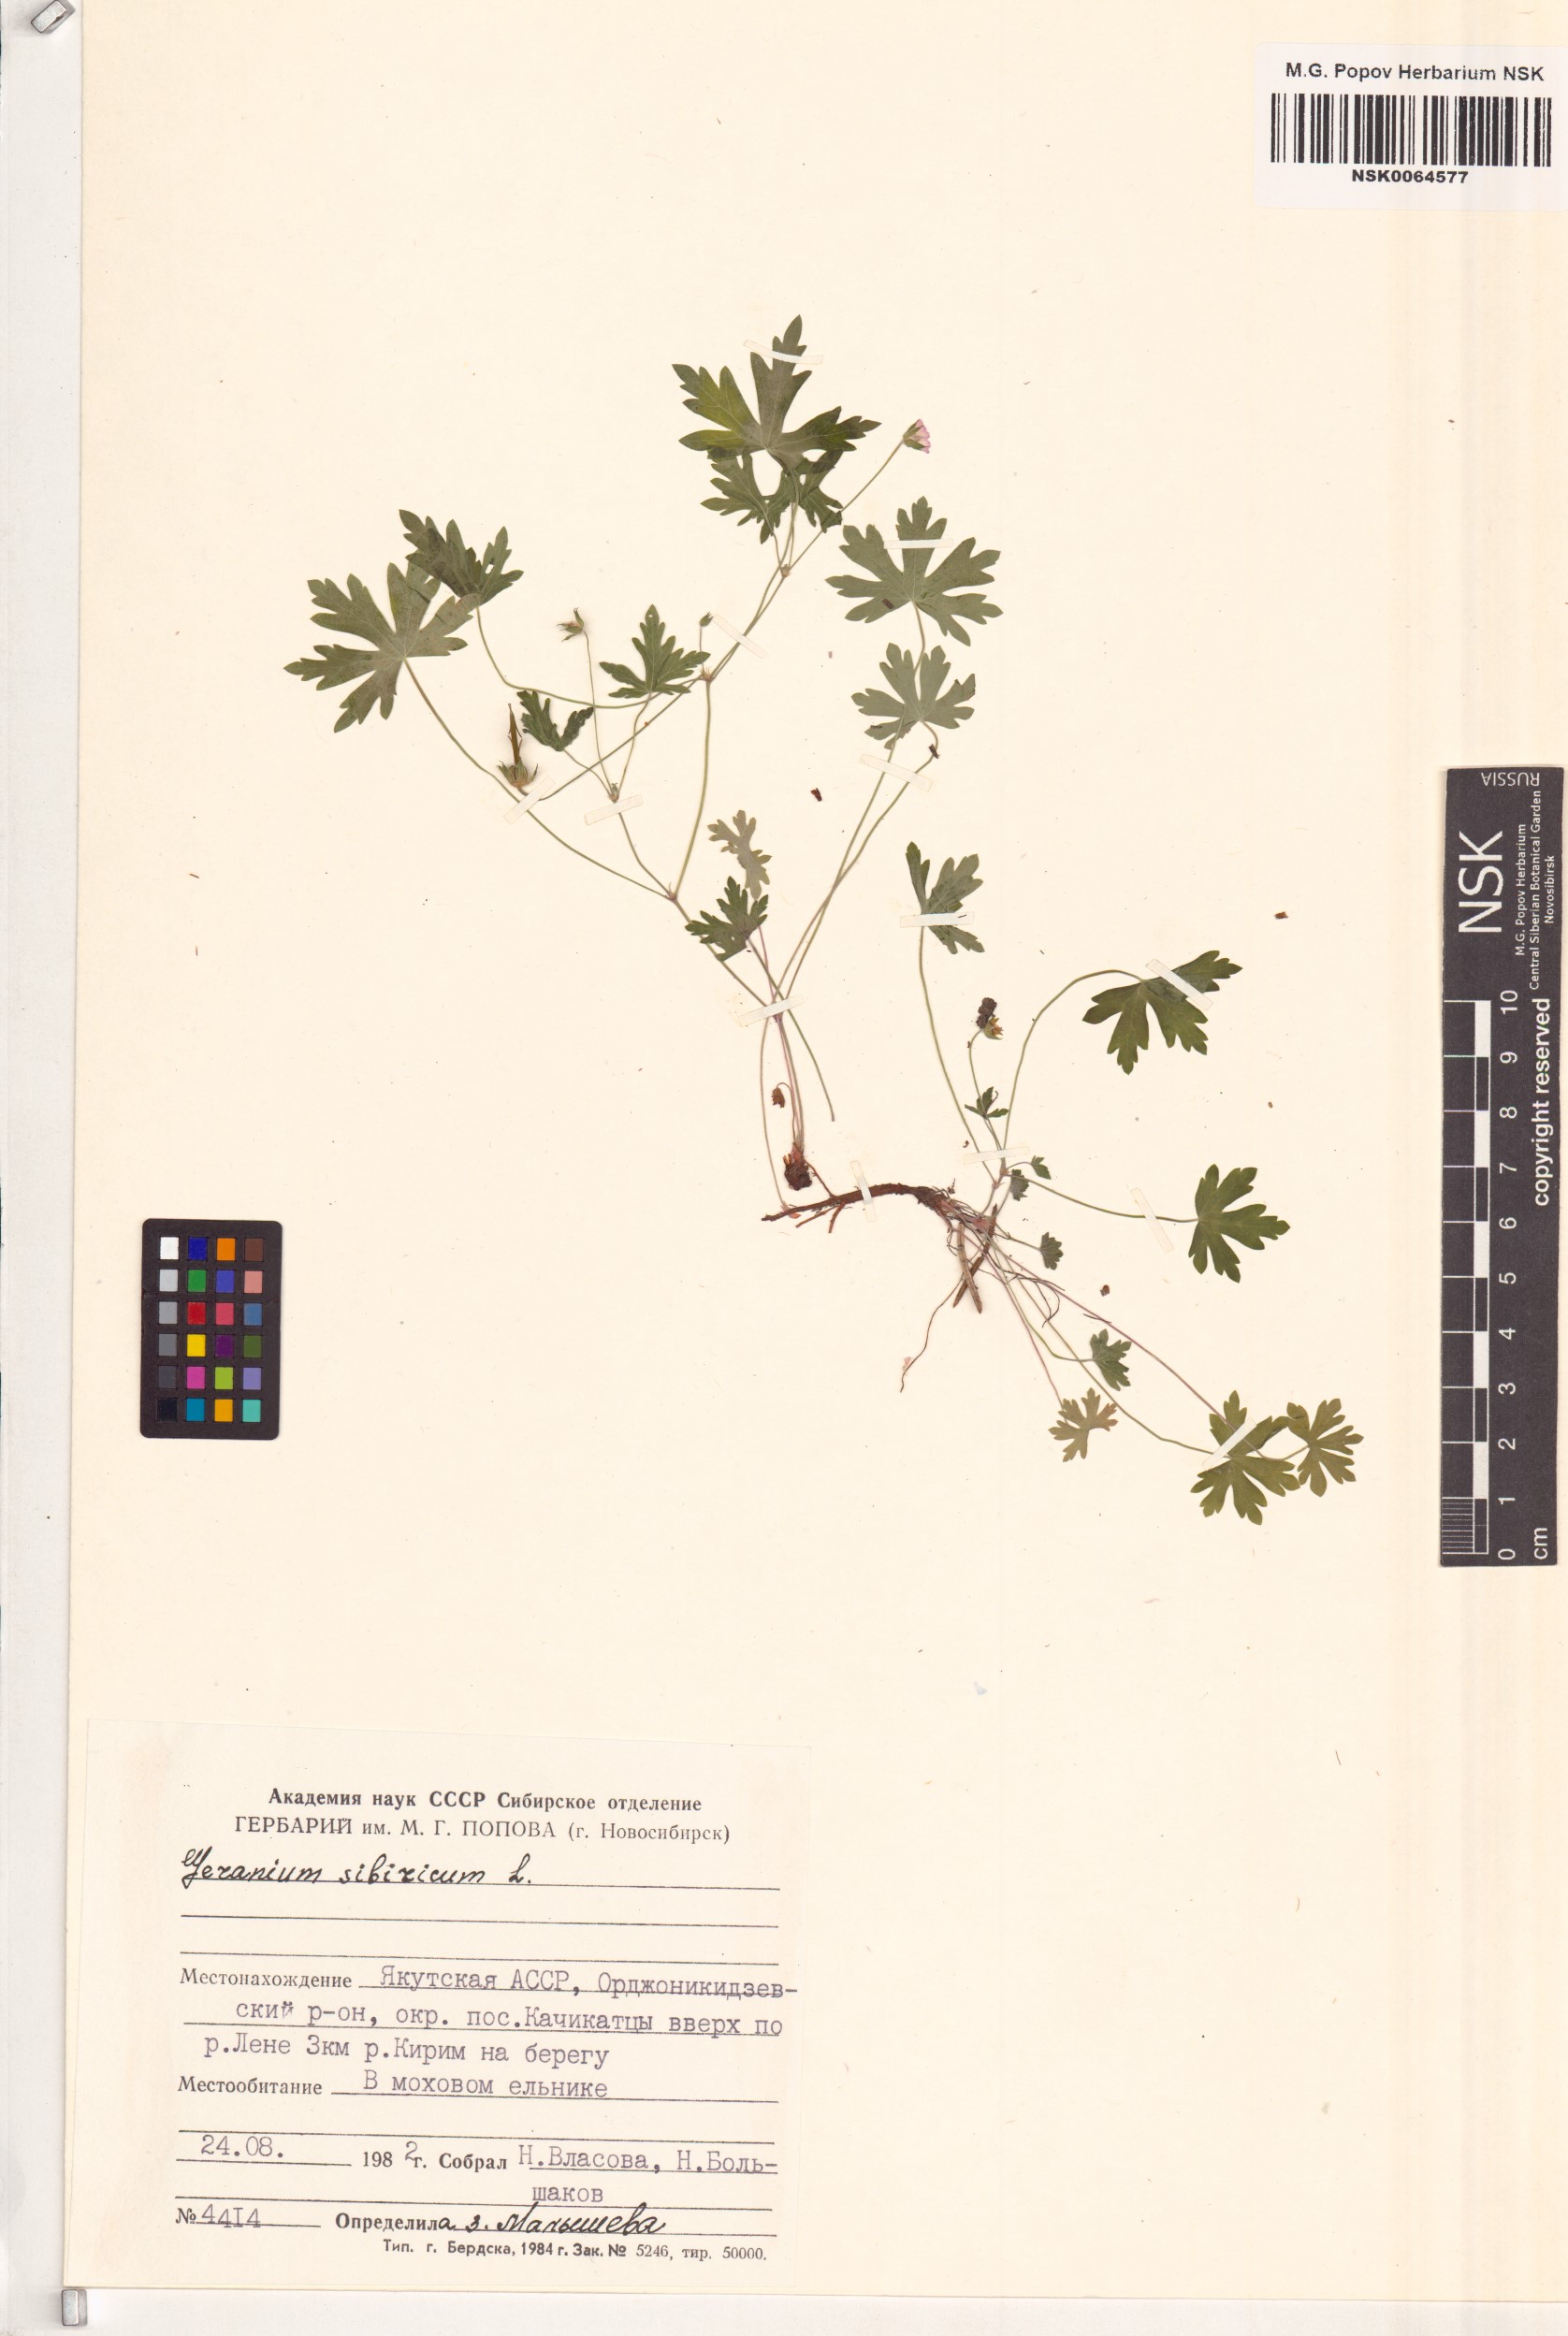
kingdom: Plantae
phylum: Tracheophyta
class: Magnoliopsida
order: Geraniales
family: Geraniaceae
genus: Geranium
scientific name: Geranium sibiricum
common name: Siberian crane's-bill
